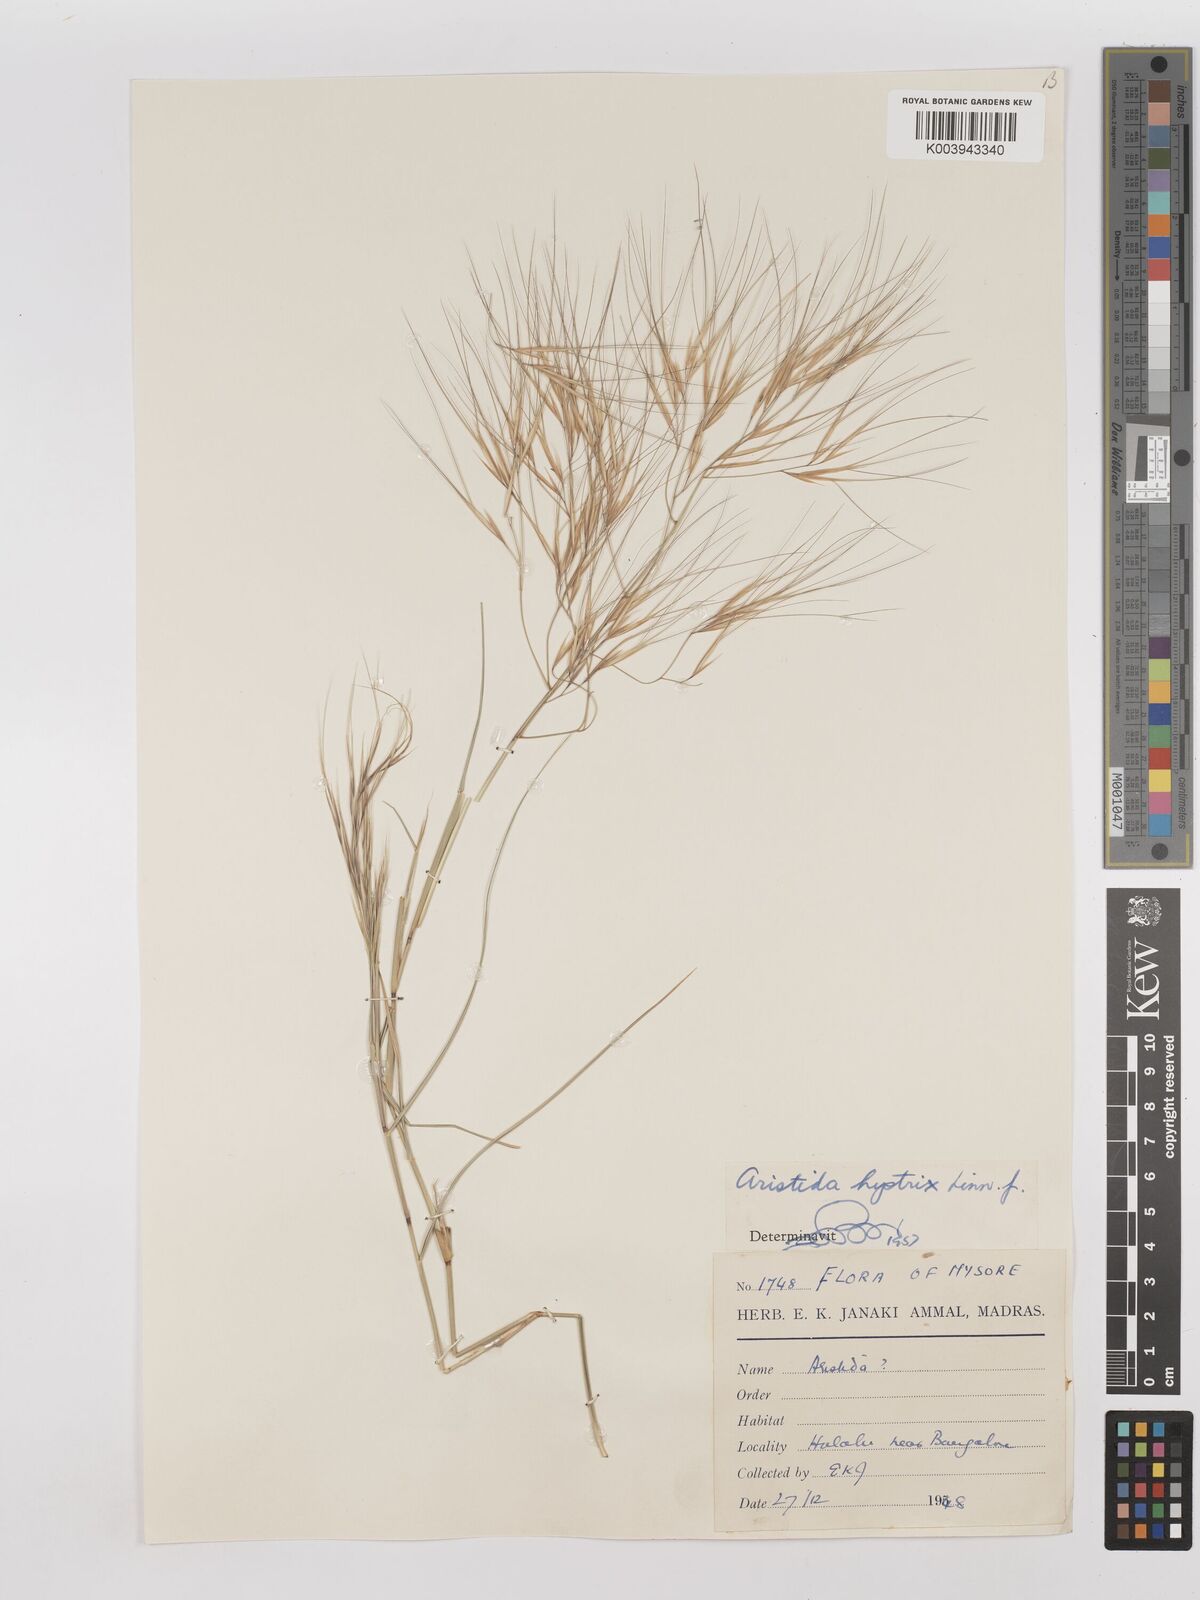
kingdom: Plantae
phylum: Tracheophyta
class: Liliopsida
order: Poales
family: Poaceae
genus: Aristida
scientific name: Aristida hystrix
